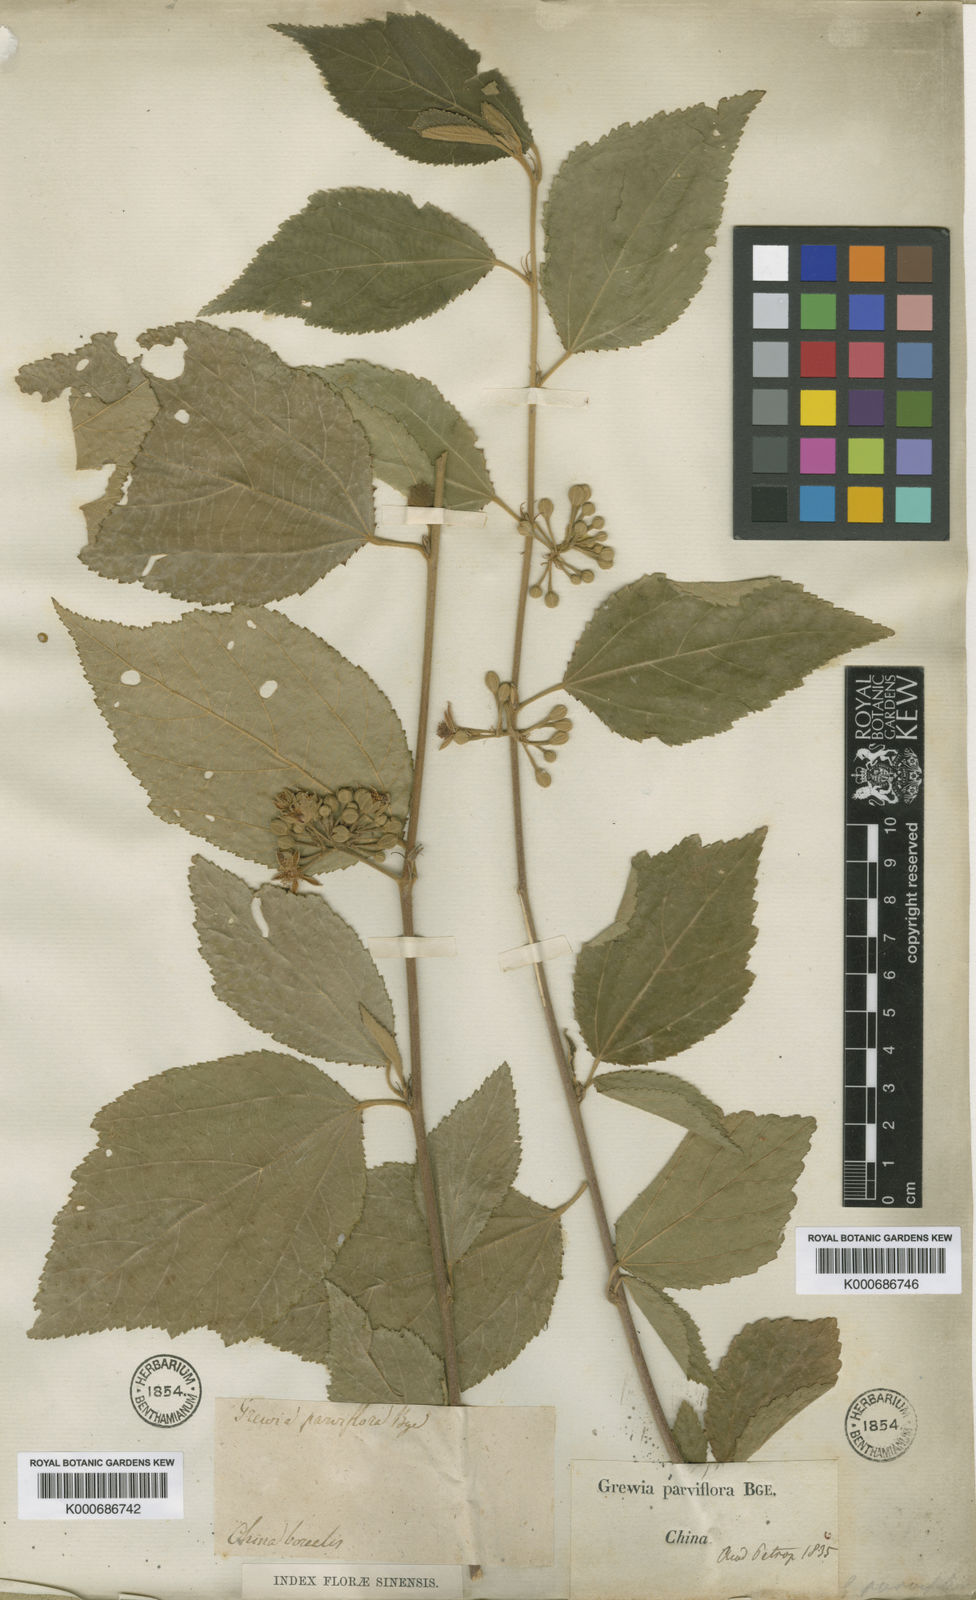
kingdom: Plantae
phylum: Tracheophyta
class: Magnoliopsida
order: Malvales
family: Malvaceae
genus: Grewia
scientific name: Grewia biloba
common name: Bilobed grewia
